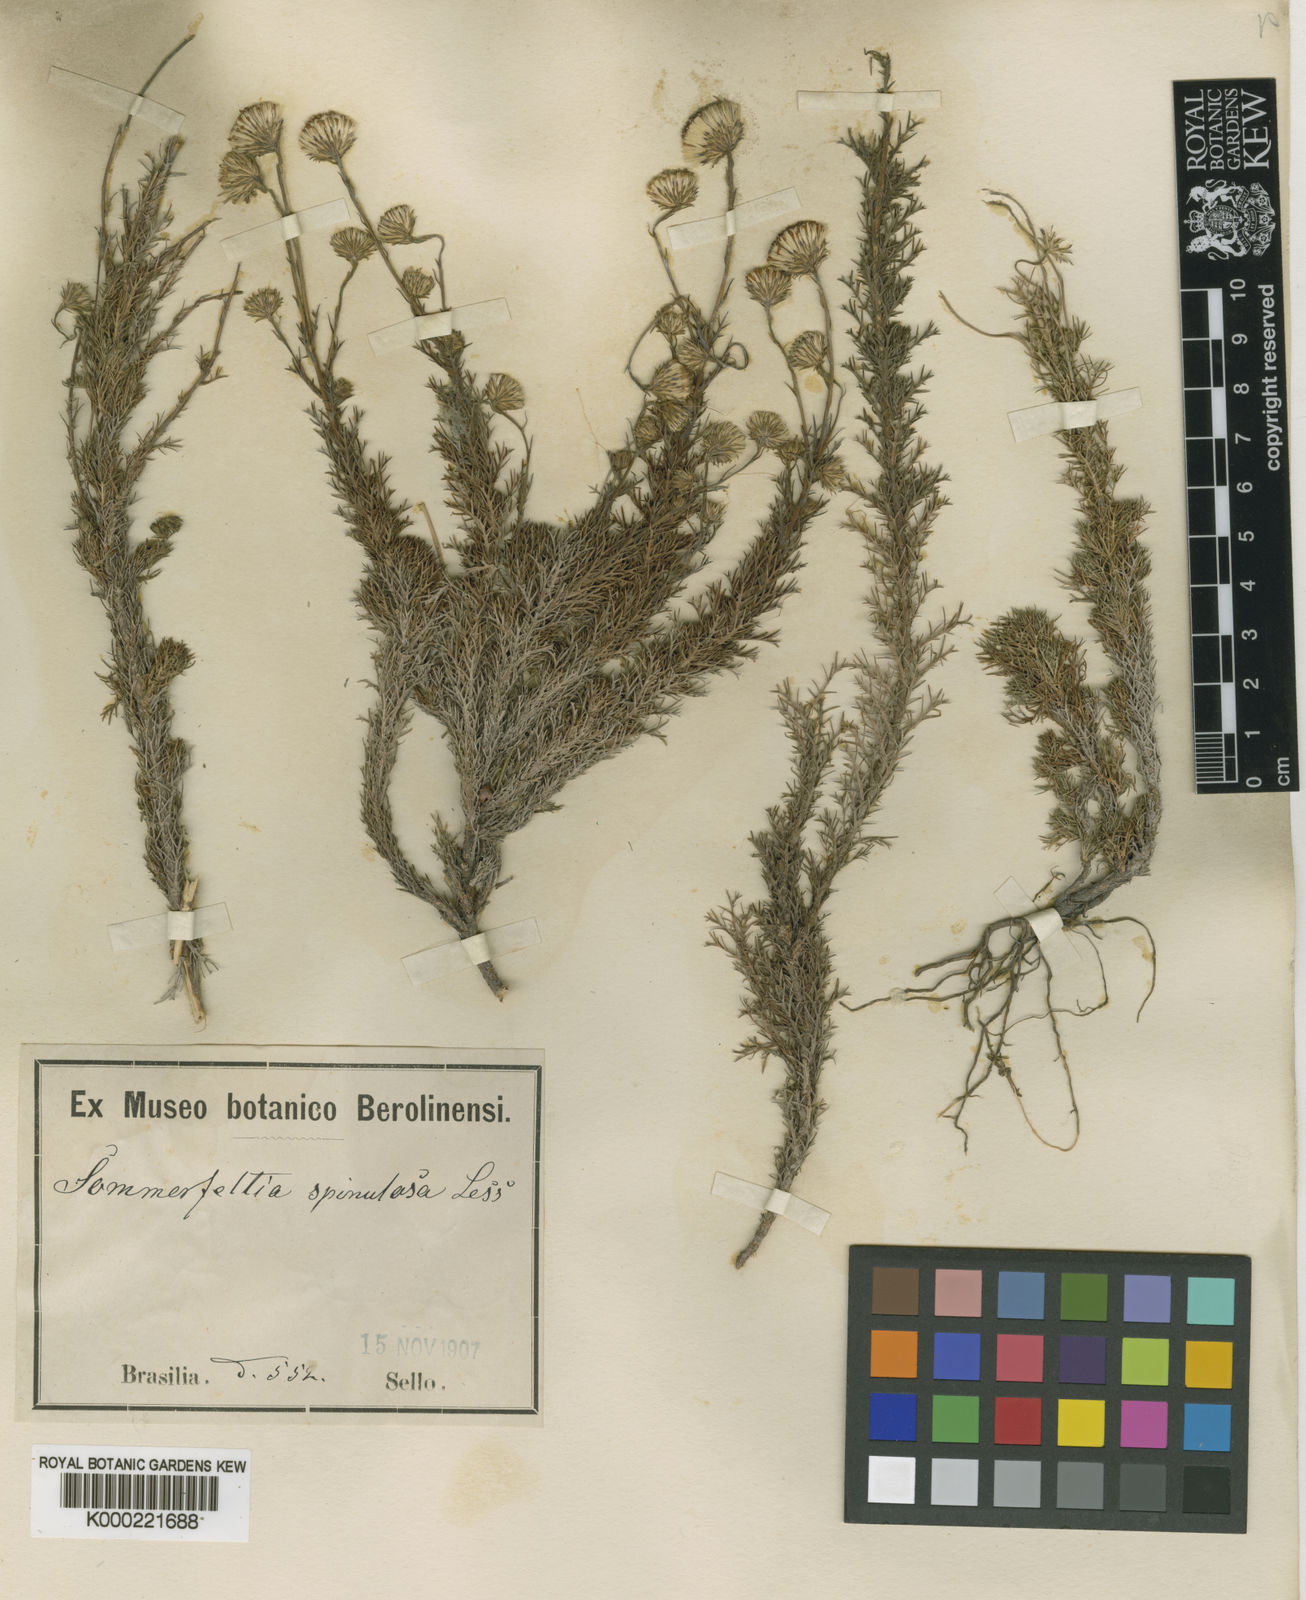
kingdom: Plantae
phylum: Tracheophyta
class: Magnoliopsida
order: Asterales
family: Asteraceae
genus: Sommerfeltia
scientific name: Sommerfeltia spinulosa
